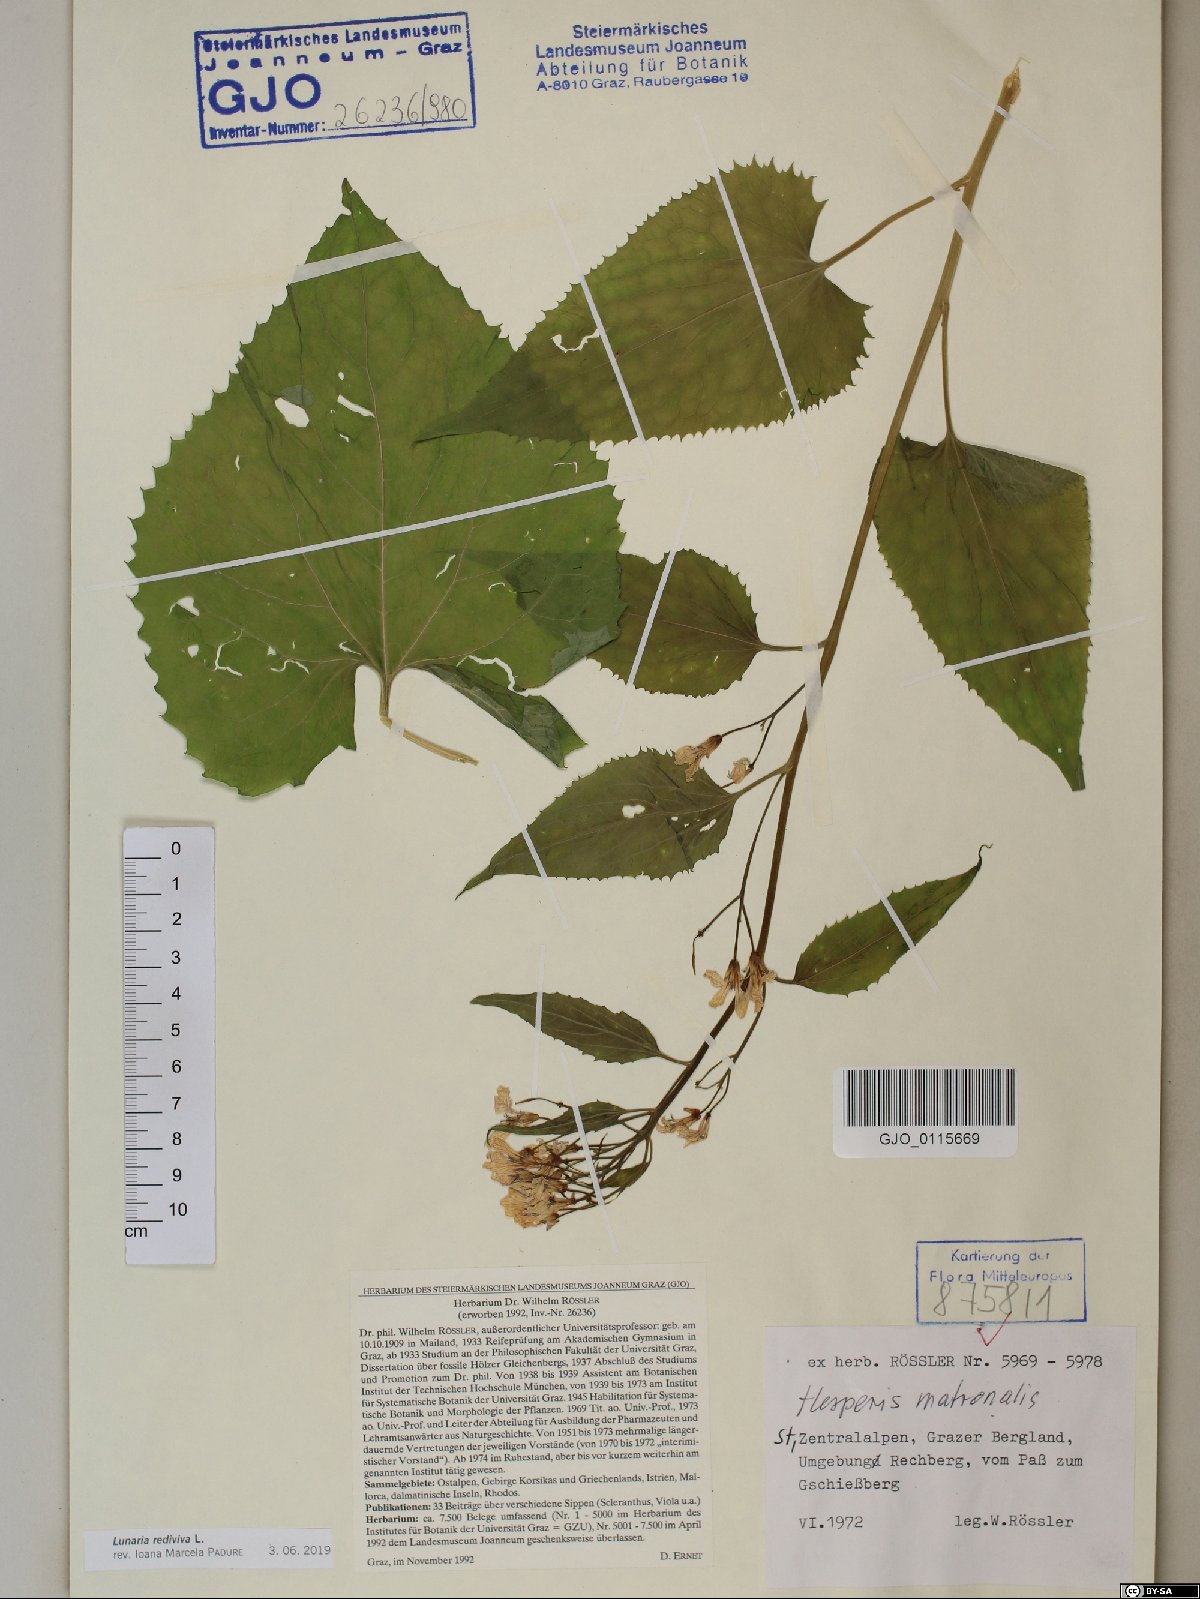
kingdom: Plantae
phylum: Tracheophyta
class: Magnoliopsida
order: Brassicales
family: Brassicaceae
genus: Lunaria
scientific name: Lunaria rediviva
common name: Perennial honesty
